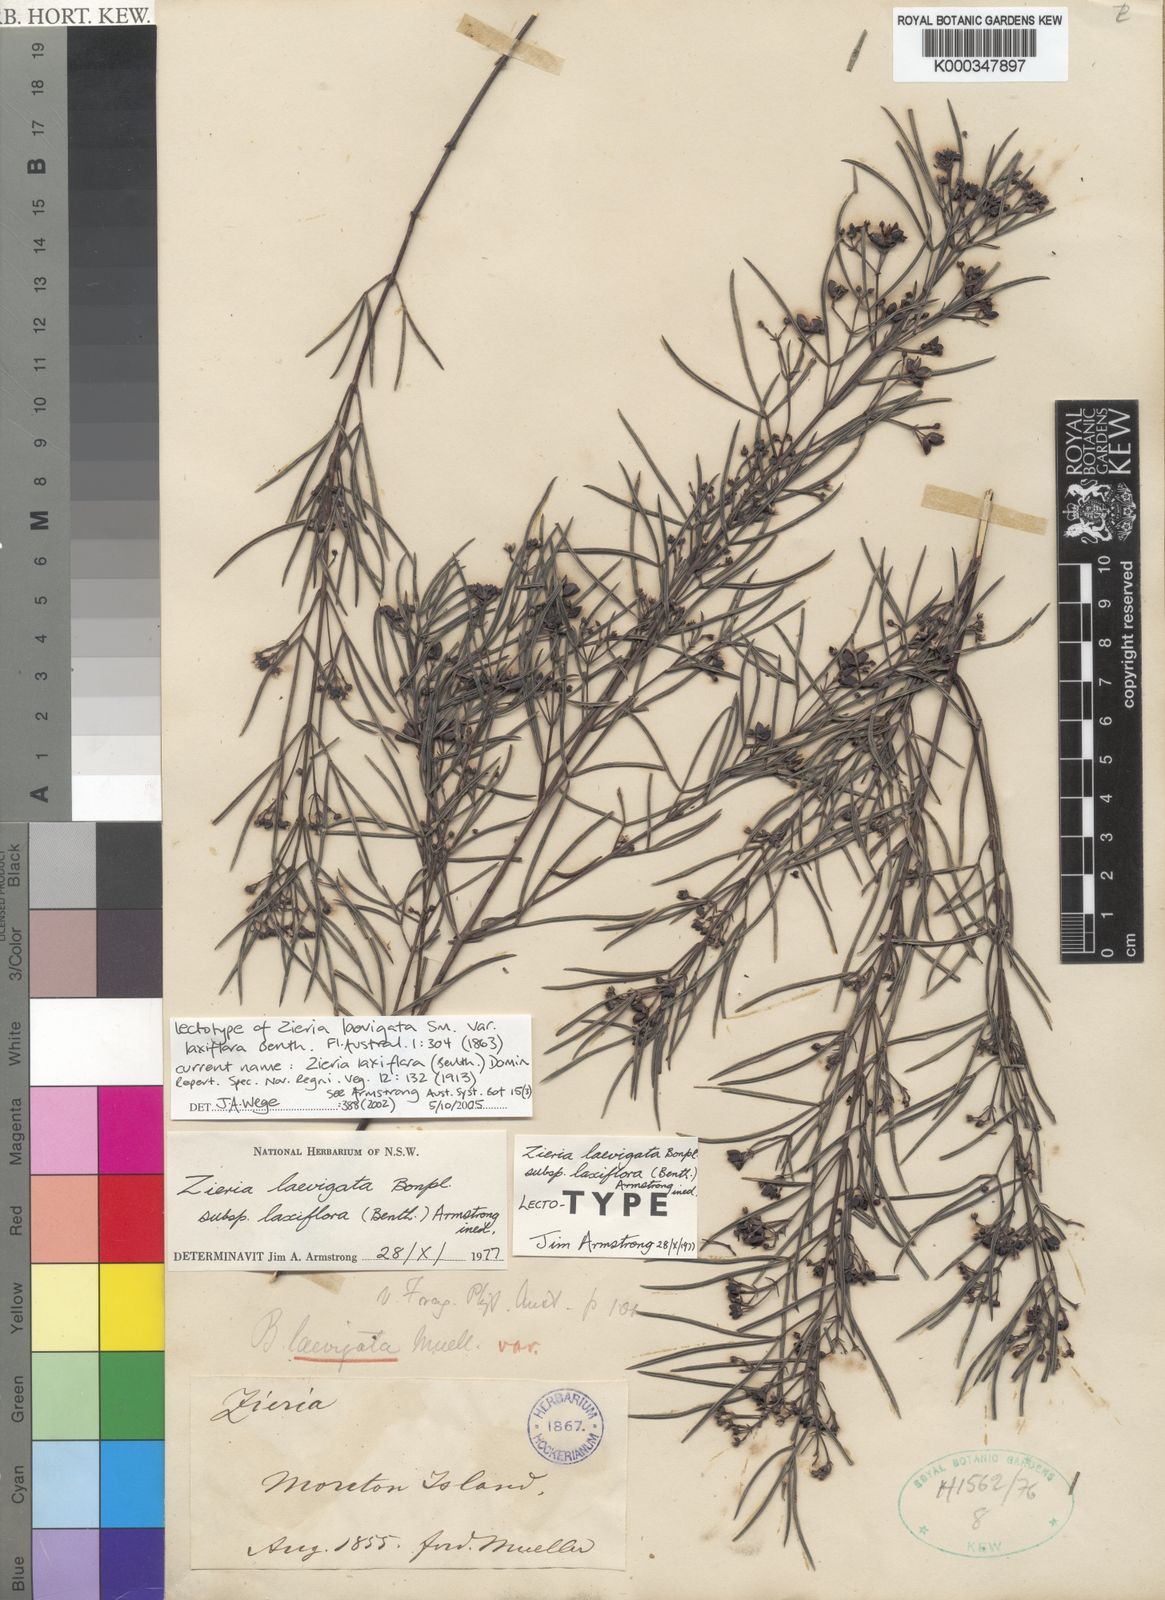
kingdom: Plantae
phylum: Tracheophyta
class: Magnoliopsida
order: Sapindales
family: Rutaceae
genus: Zieria
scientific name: Zieria laxiflora
